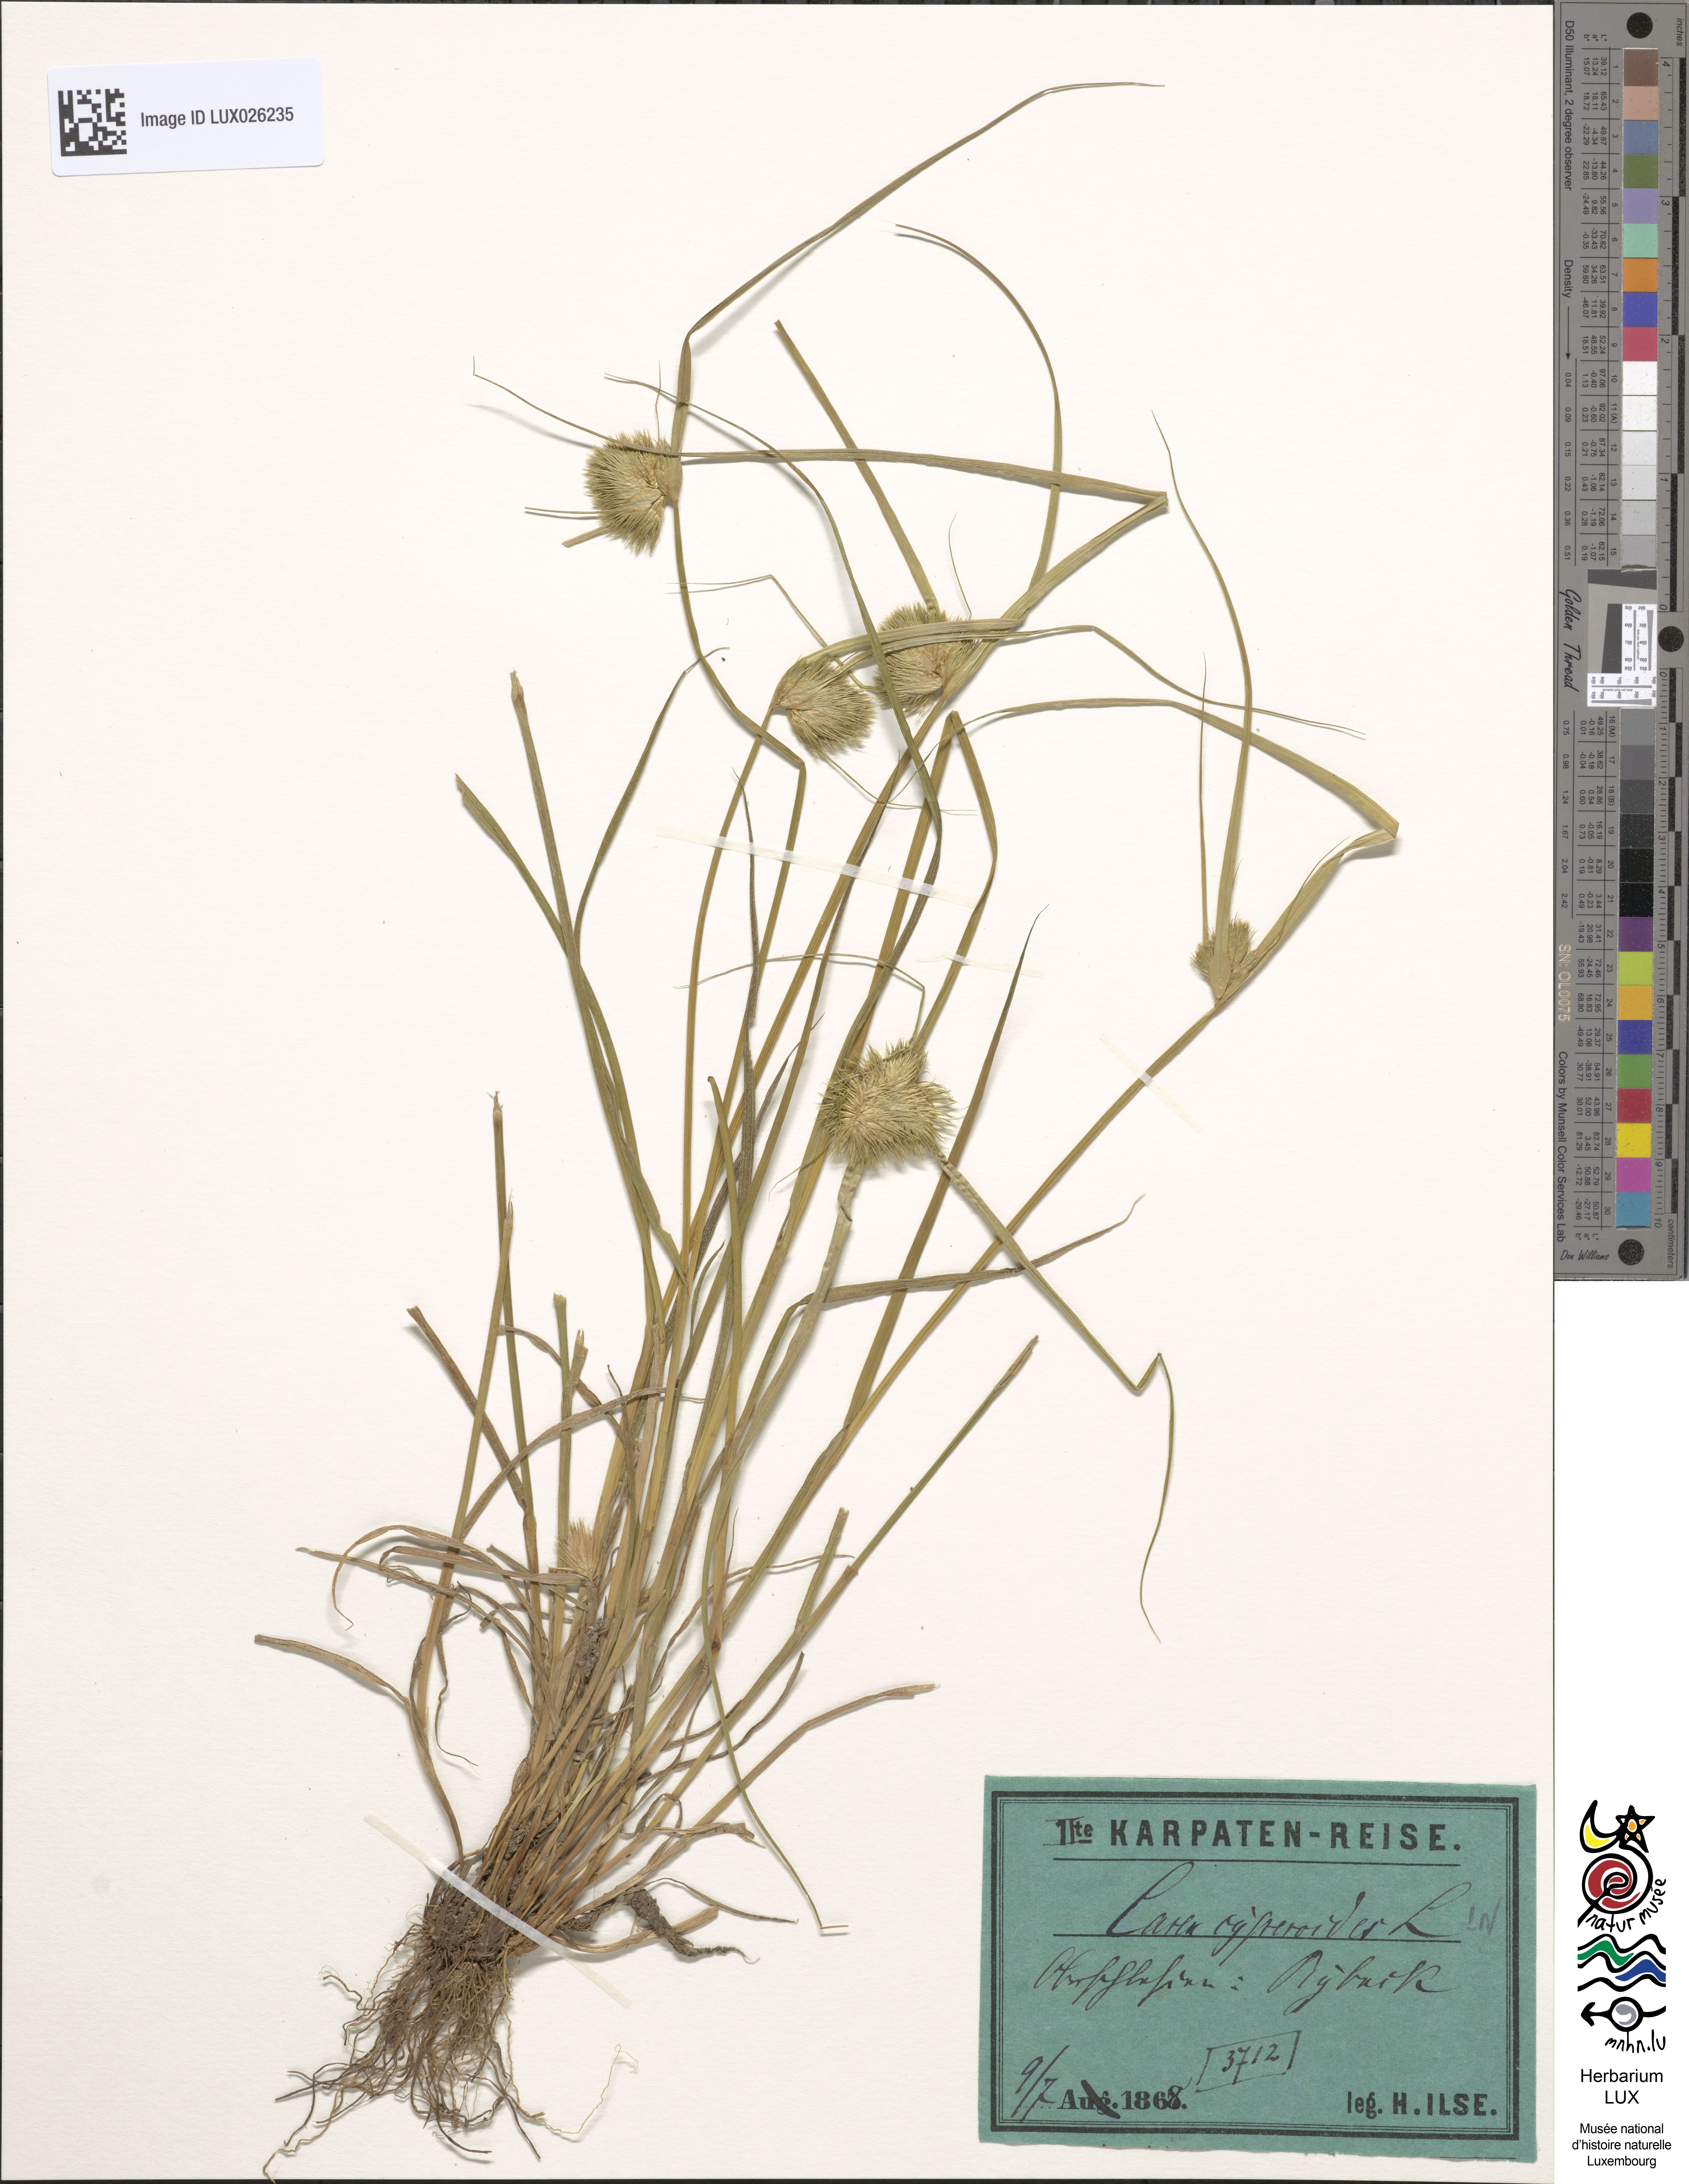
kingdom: Plantae
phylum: Tracheophyta
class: Liliopsida
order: Poales
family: Cyperaceae
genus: Carex
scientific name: Carex bohemica
